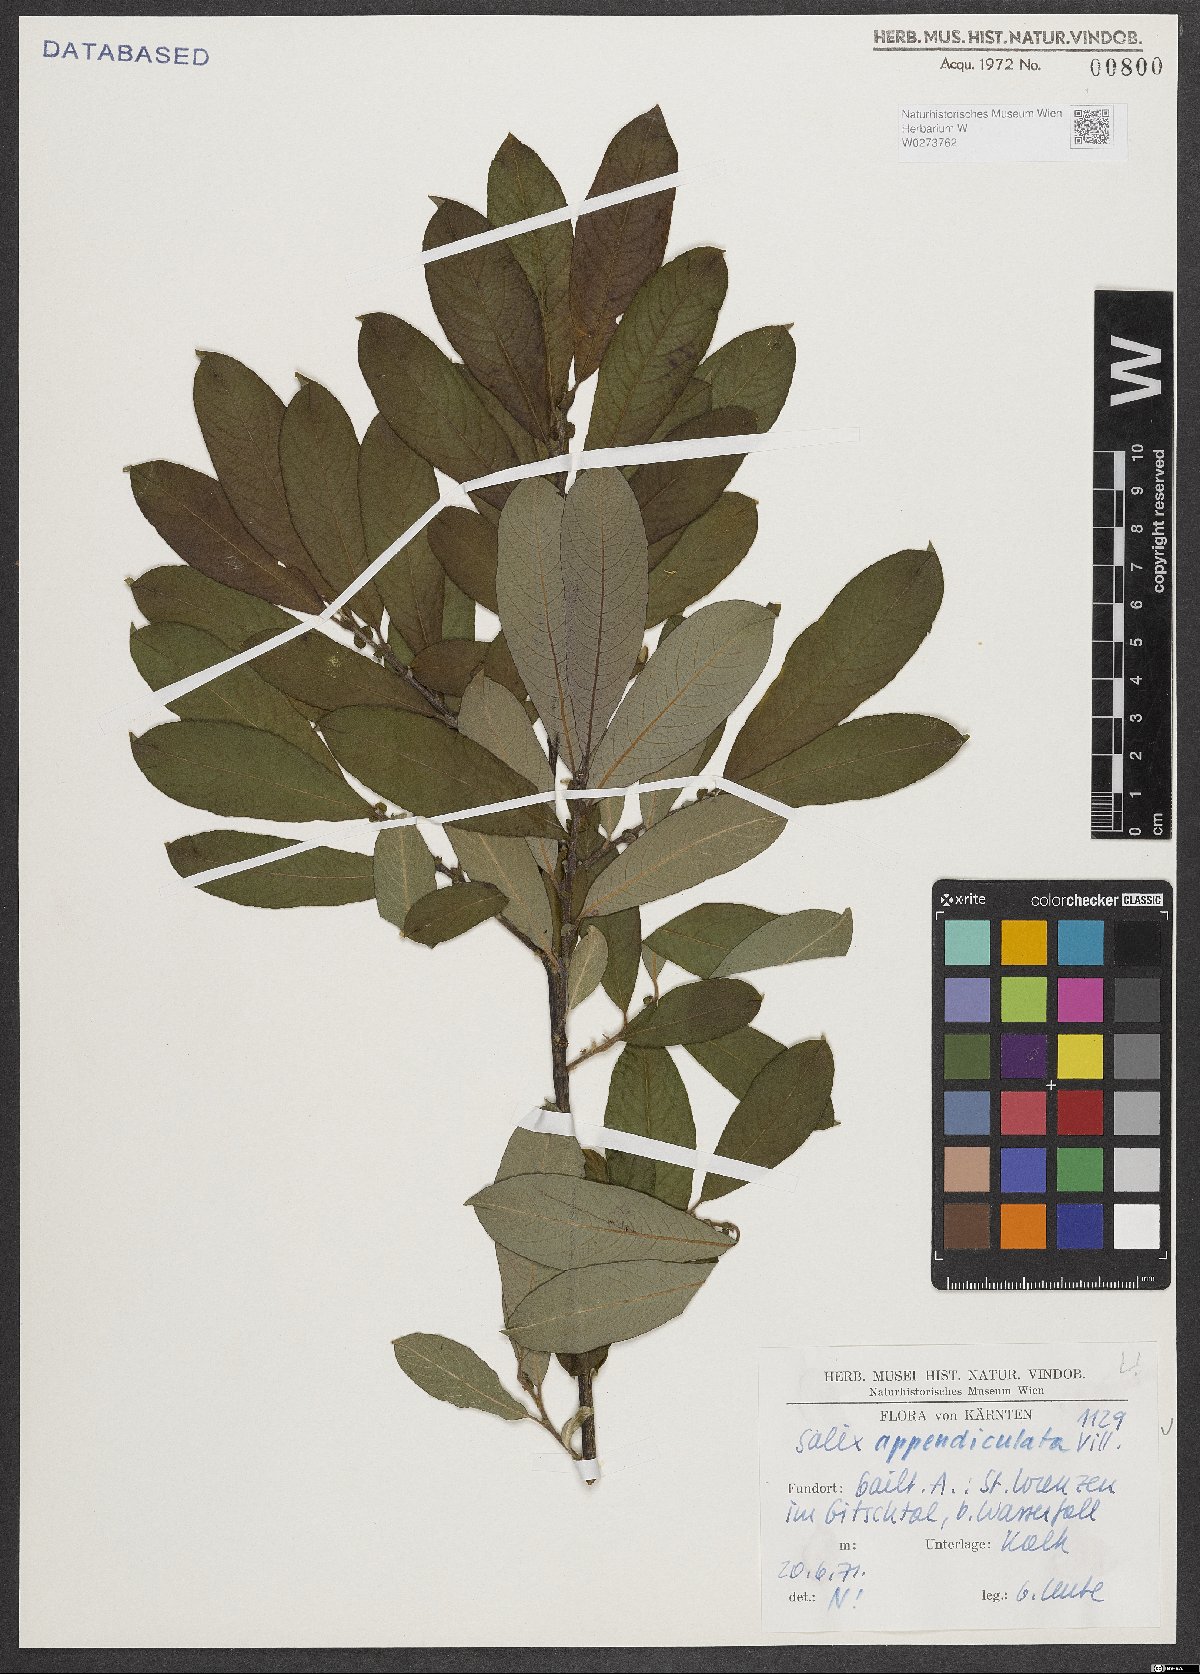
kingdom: Plantae
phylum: Tracheophyta
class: Magnoliopsida
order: Malpighiales
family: Salicaceae
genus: Salix
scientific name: Salix appendiculata
